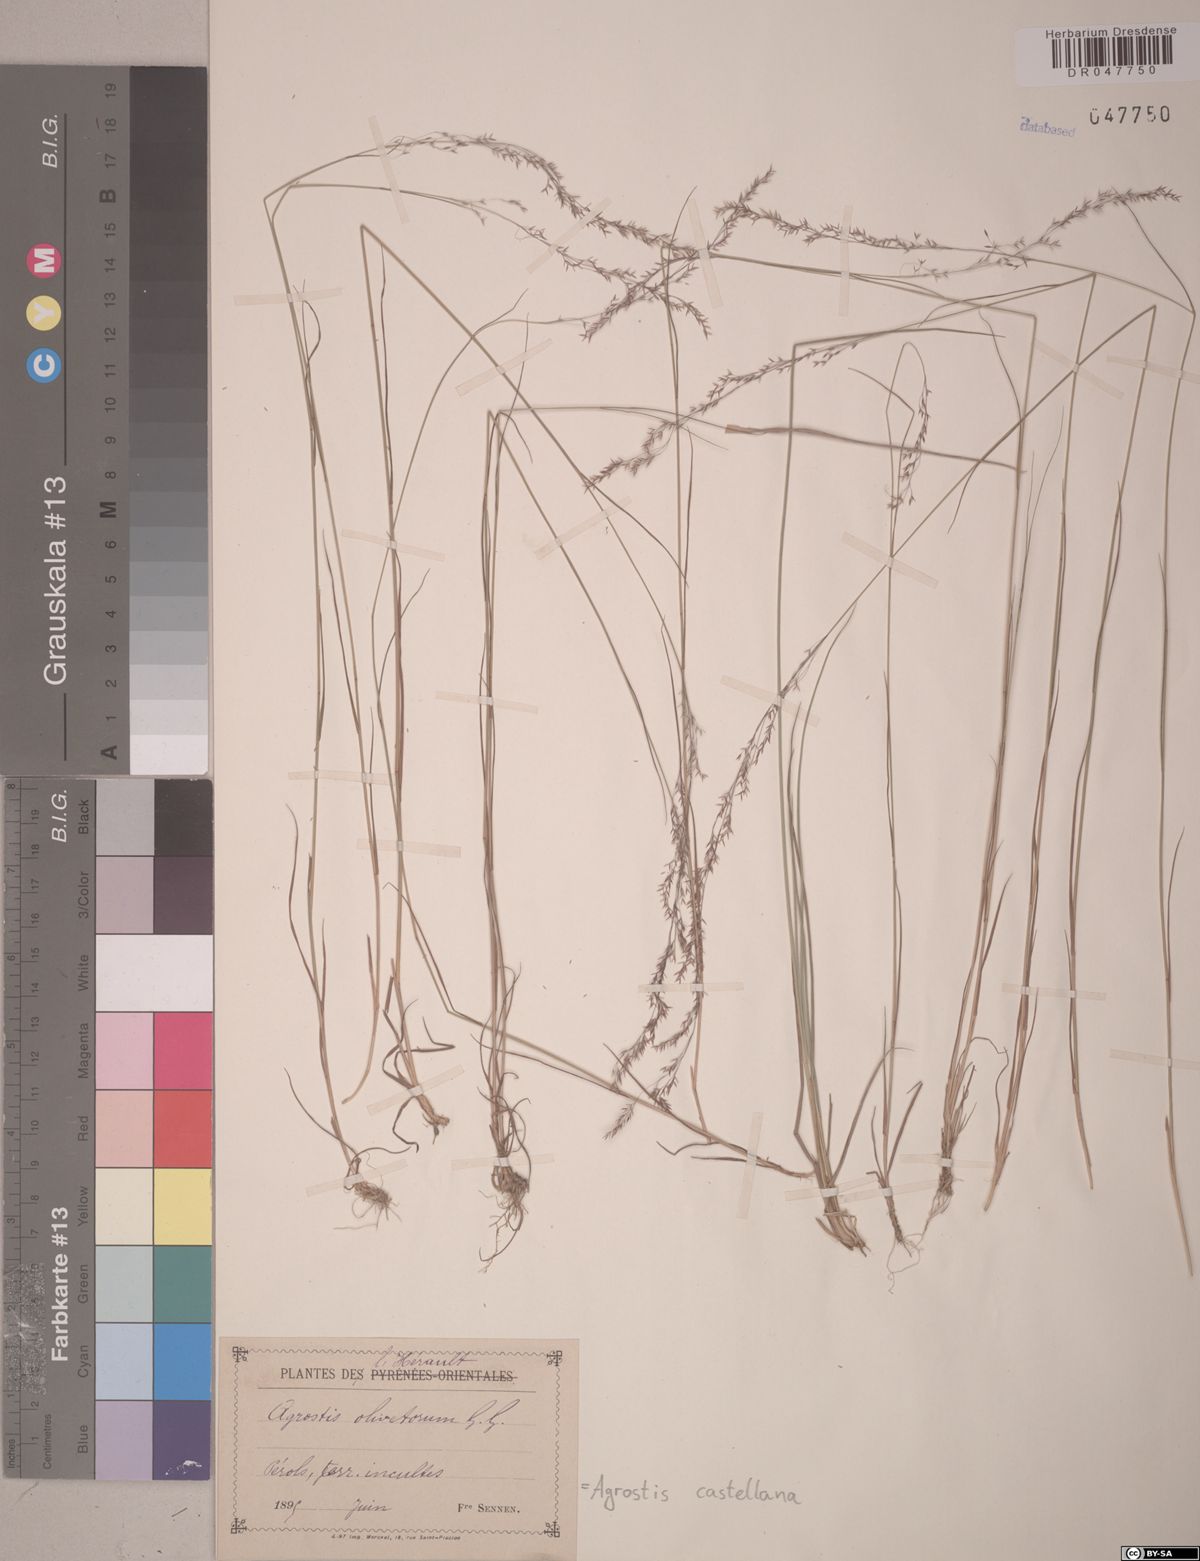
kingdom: Plantae
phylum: Tracheophyta
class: Liliopsida
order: Poales
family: Poaceae
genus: Agrostis
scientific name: Agrostis castellana
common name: Highland bent
